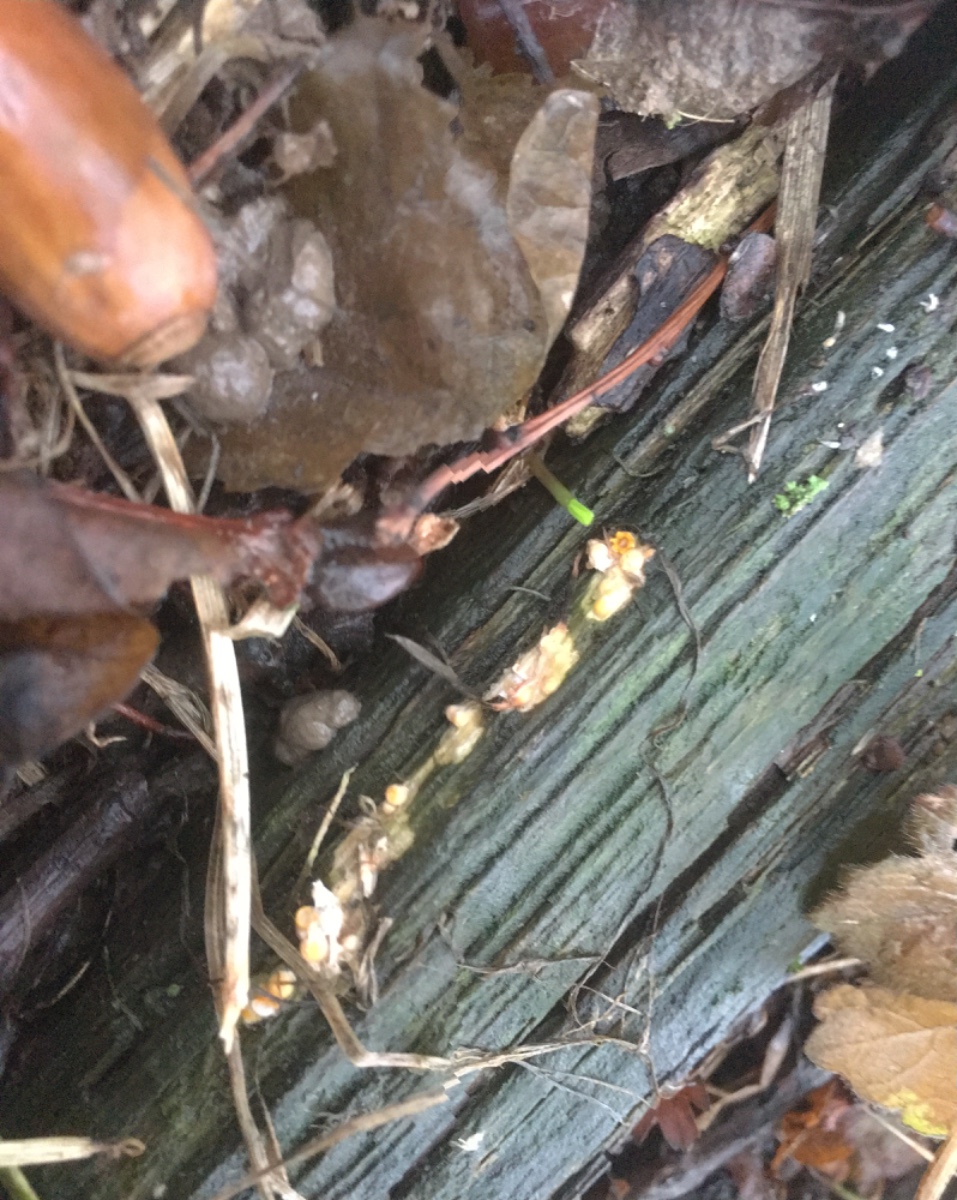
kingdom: Fungi
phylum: Basidiomycota
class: Agaricomycetes
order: Geastrales
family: Geastraceae
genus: Sphaerobolus
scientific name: Sphaerobolus stellatus
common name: bombekaster
